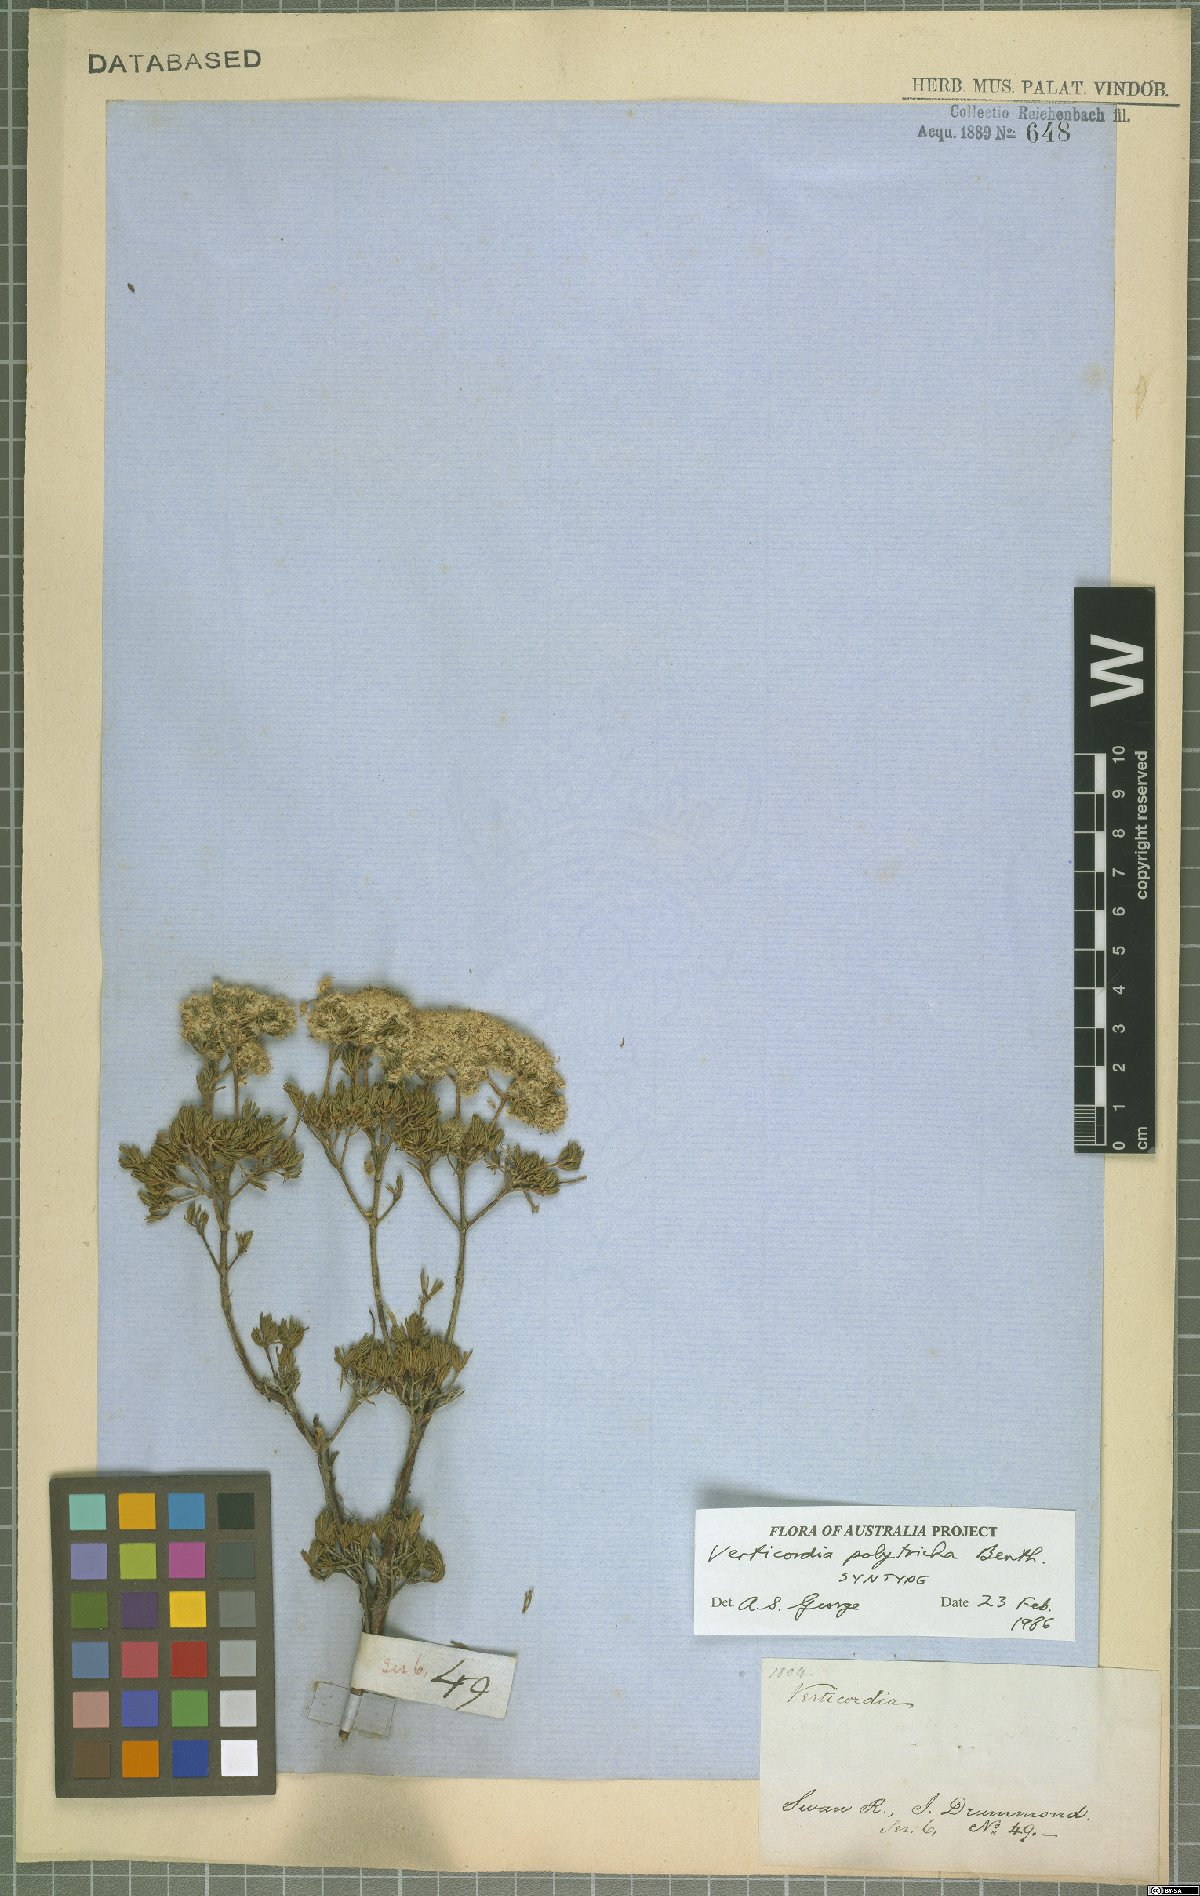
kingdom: Plantae
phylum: Tracheophyta
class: Magnoliopsida
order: Myrtales
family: Myrtaceae
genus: Verticordia
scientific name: Verticordia polytricha
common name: Northern-cauliflower
